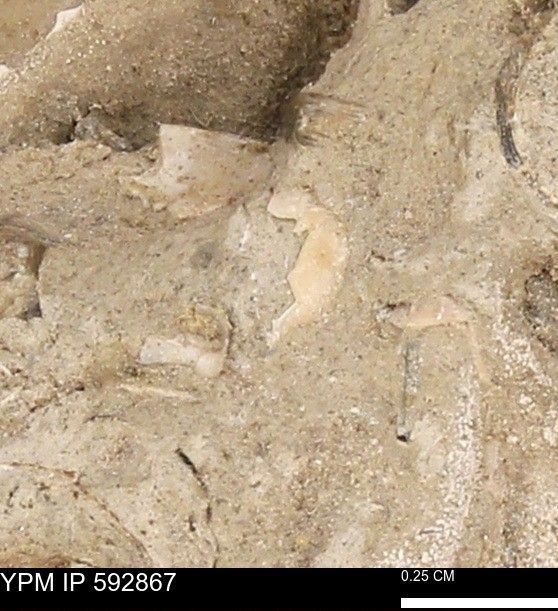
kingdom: Animalia
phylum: Mollusca
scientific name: Mollusca
